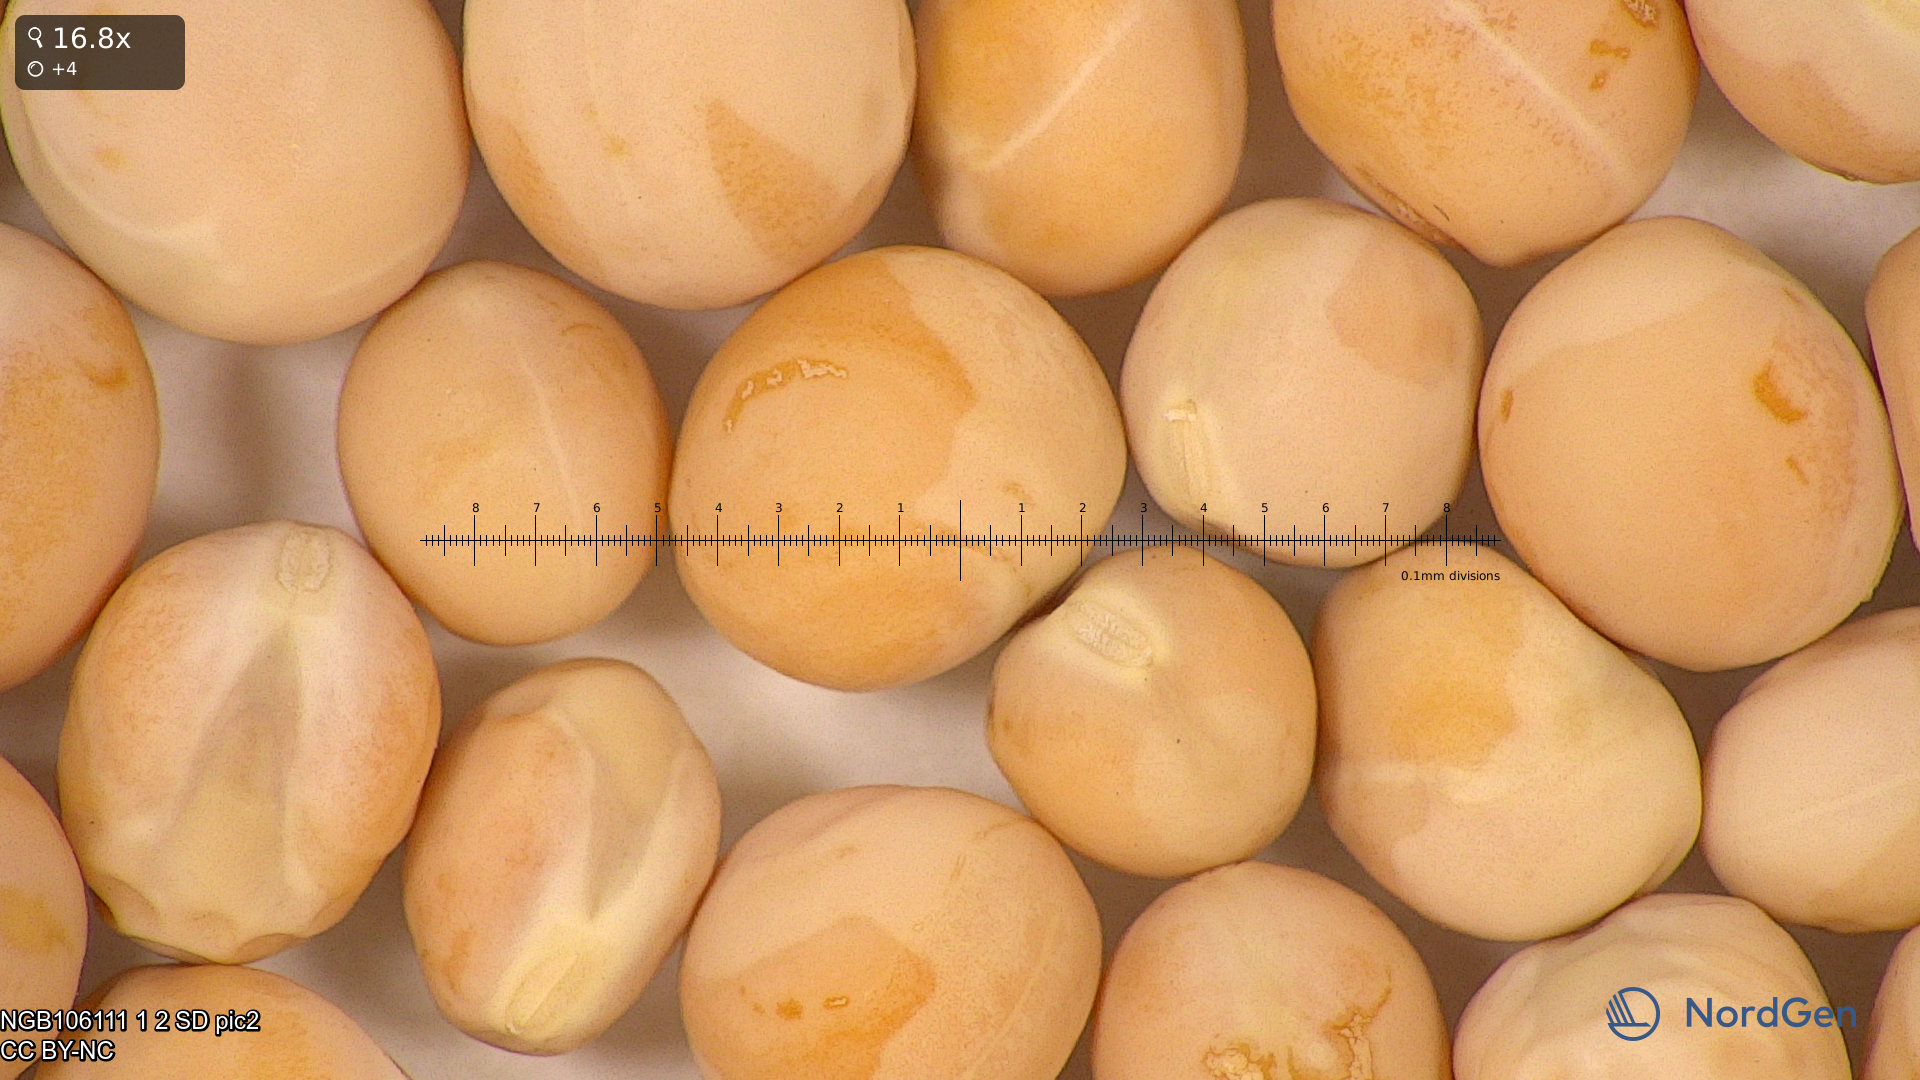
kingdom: Plantae
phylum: Tracheophyta
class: Magnoliopsida
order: Fabales
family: Fabaceae
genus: Lathyrus
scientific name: Lathyrus oleraceus
